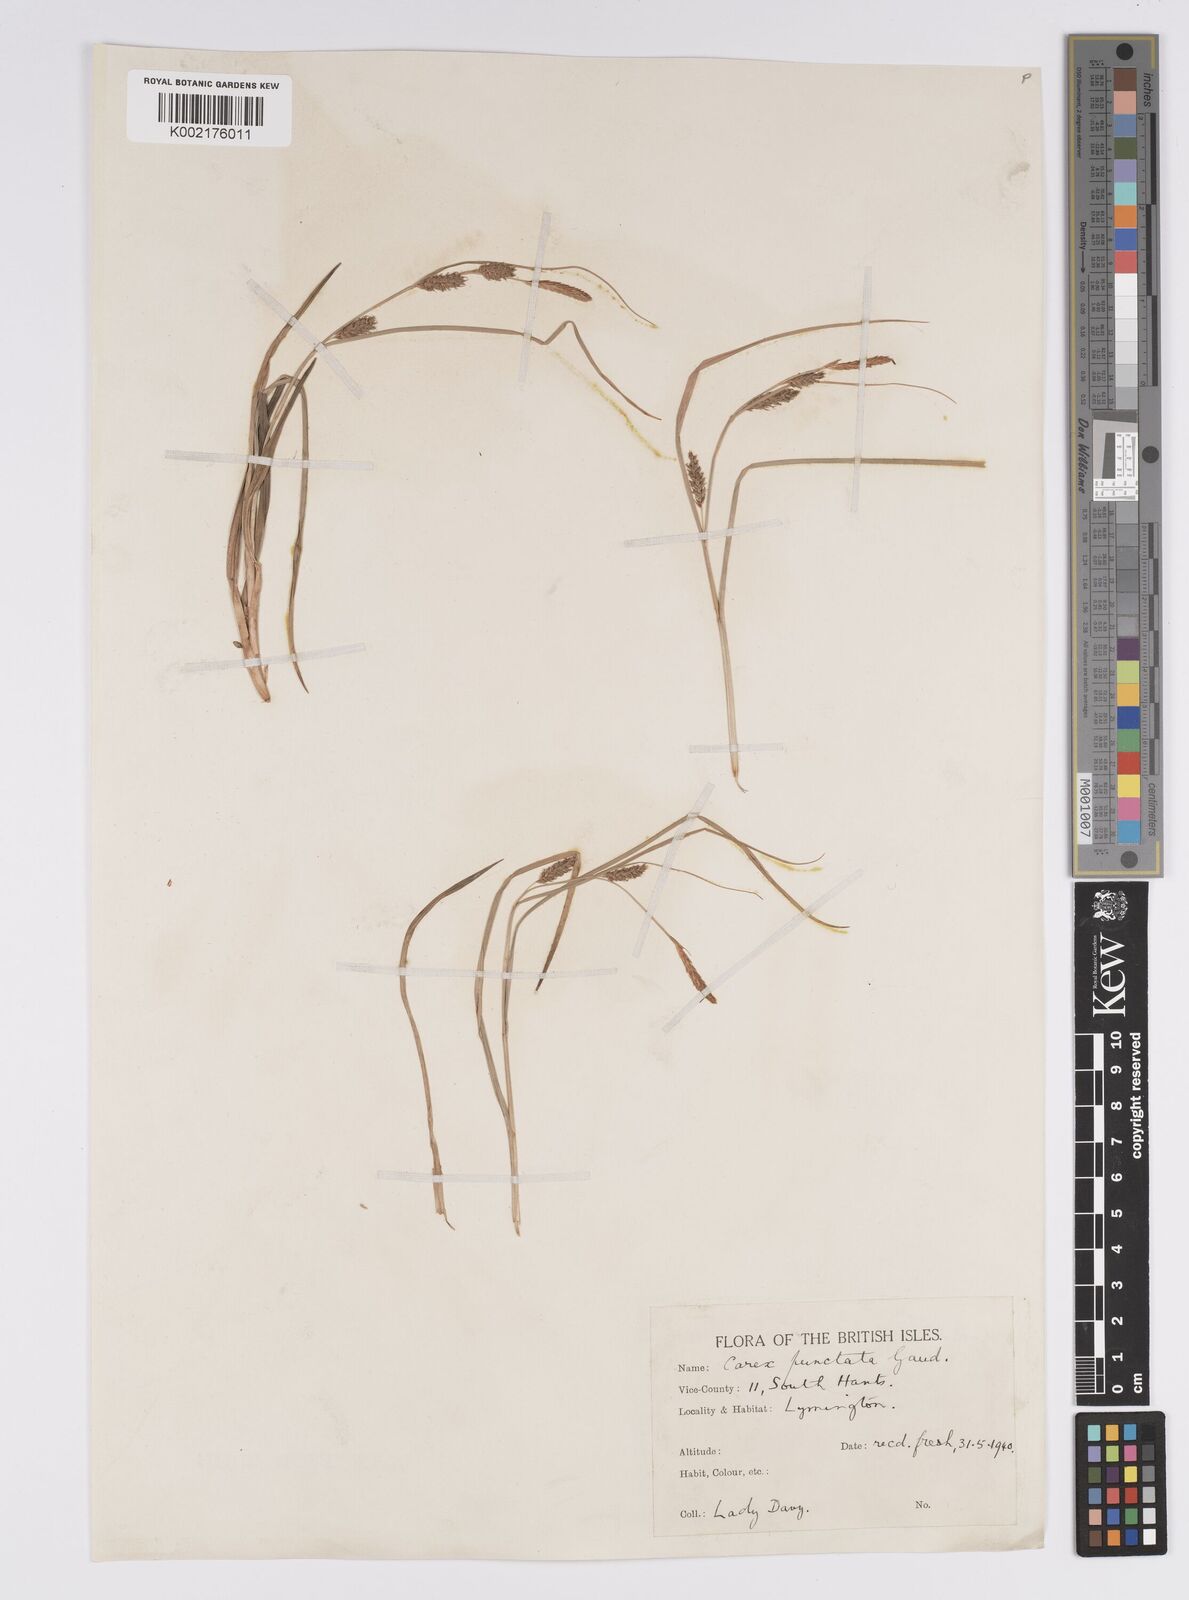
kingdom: Plantae
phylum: Tracheophyta
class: Liliopsida
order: Poales
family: Cyperaceae
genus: Carex
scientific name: Carex punctata
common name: Dotted sedge
